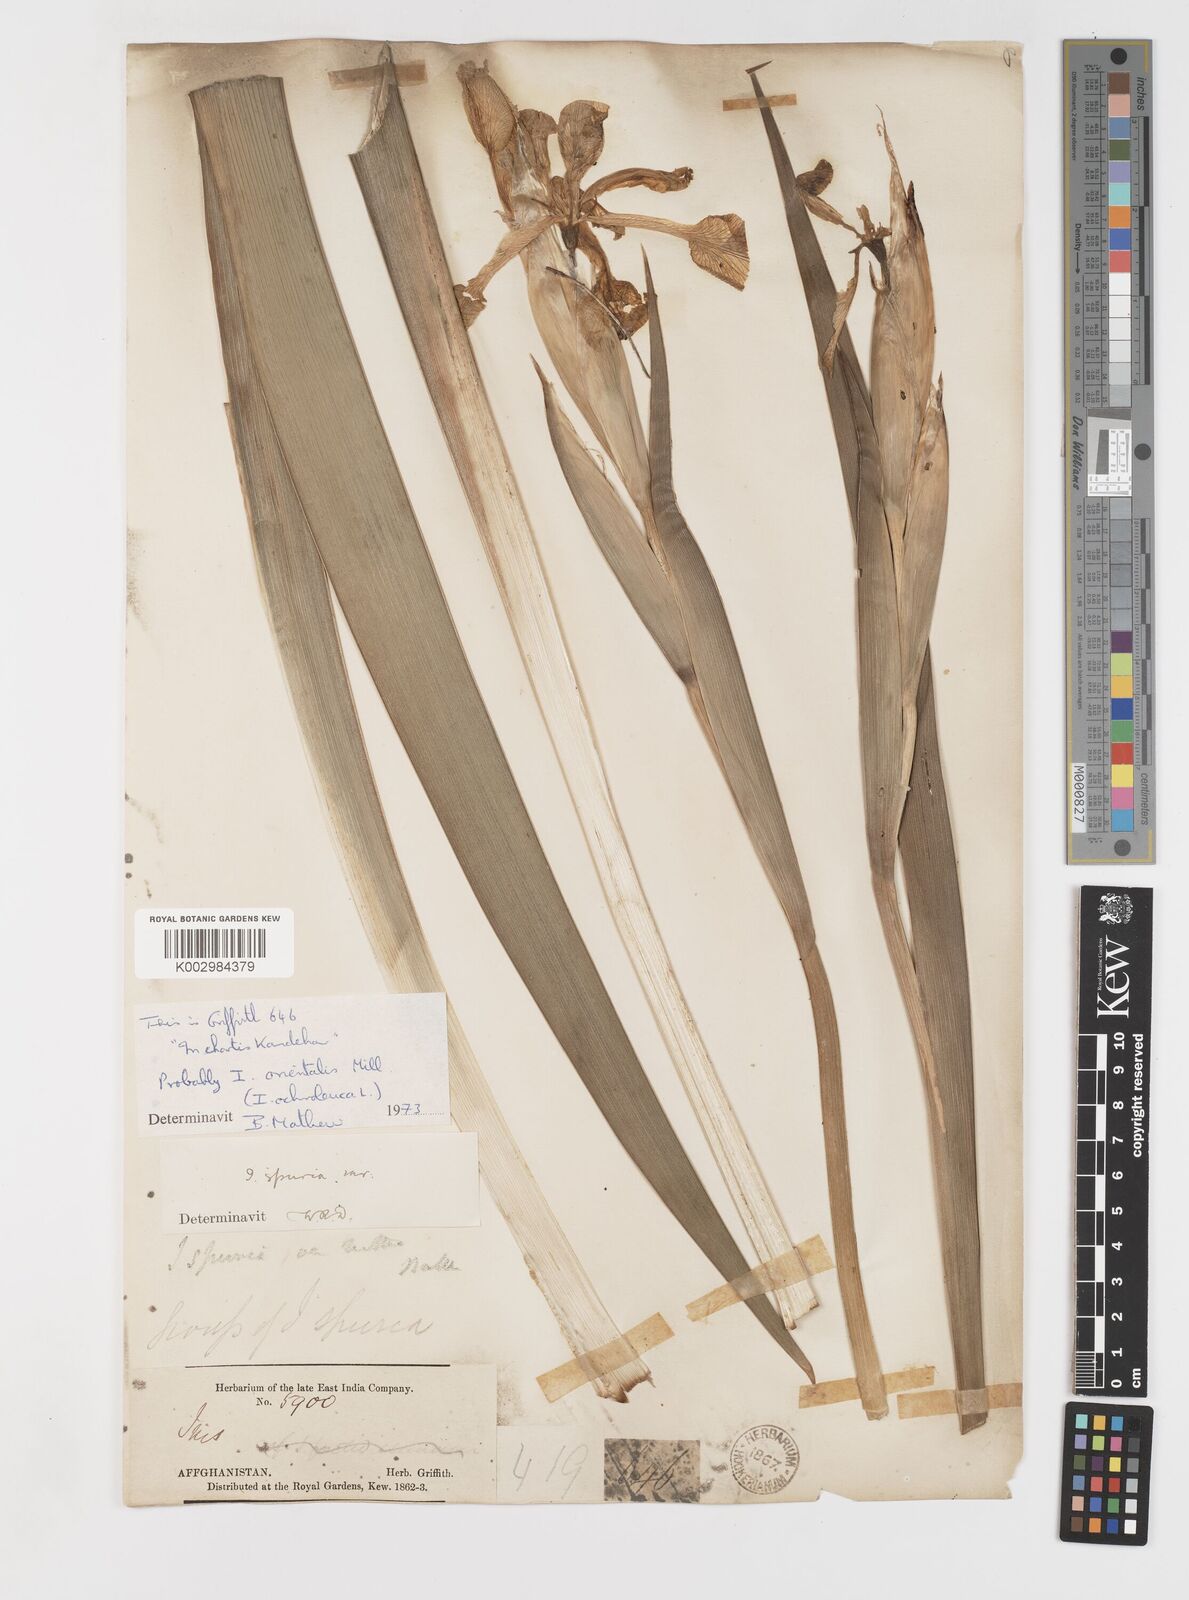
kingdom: Plantae
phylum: Tracheophyta
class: Liliopsida
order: Asparagales
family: Iridaceae
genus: Iris
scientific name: Iris orientalis
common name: Turkish iris
